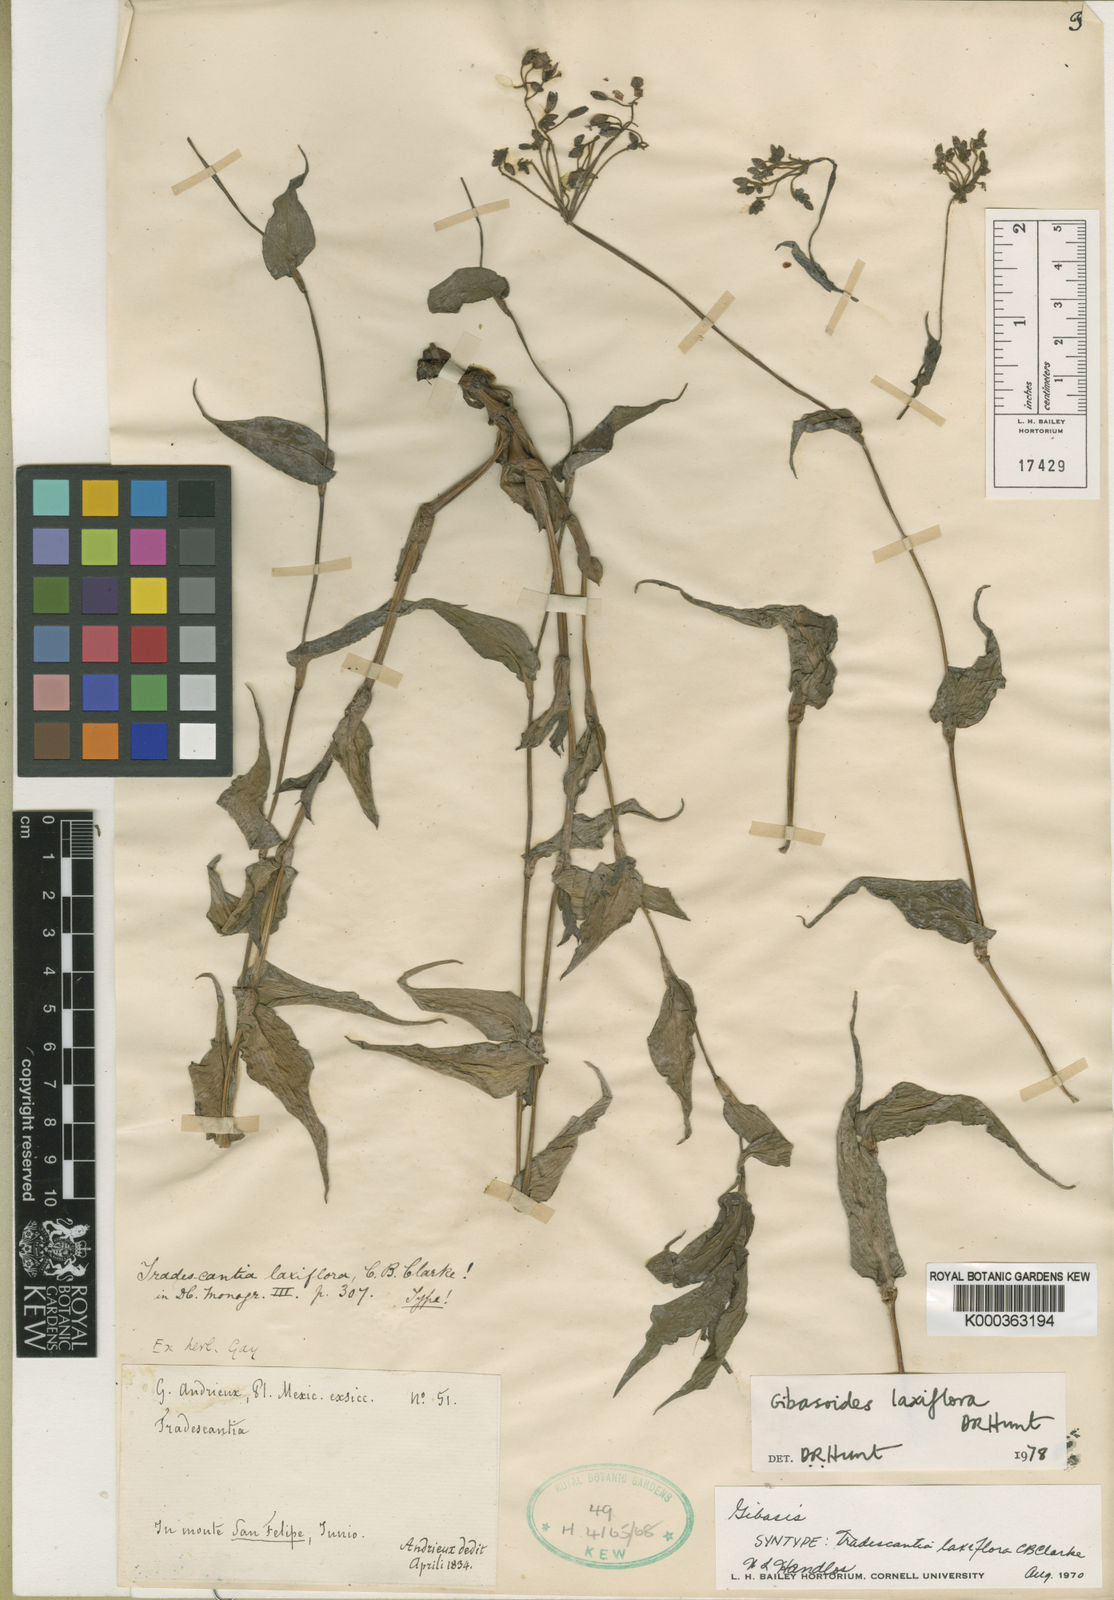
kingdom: Plantae
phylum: Tracheophyta
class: Liliopsida
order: Commelinales
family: Commelinaceae
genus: Thyrsanthemum
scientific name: Thyrsanthemum
